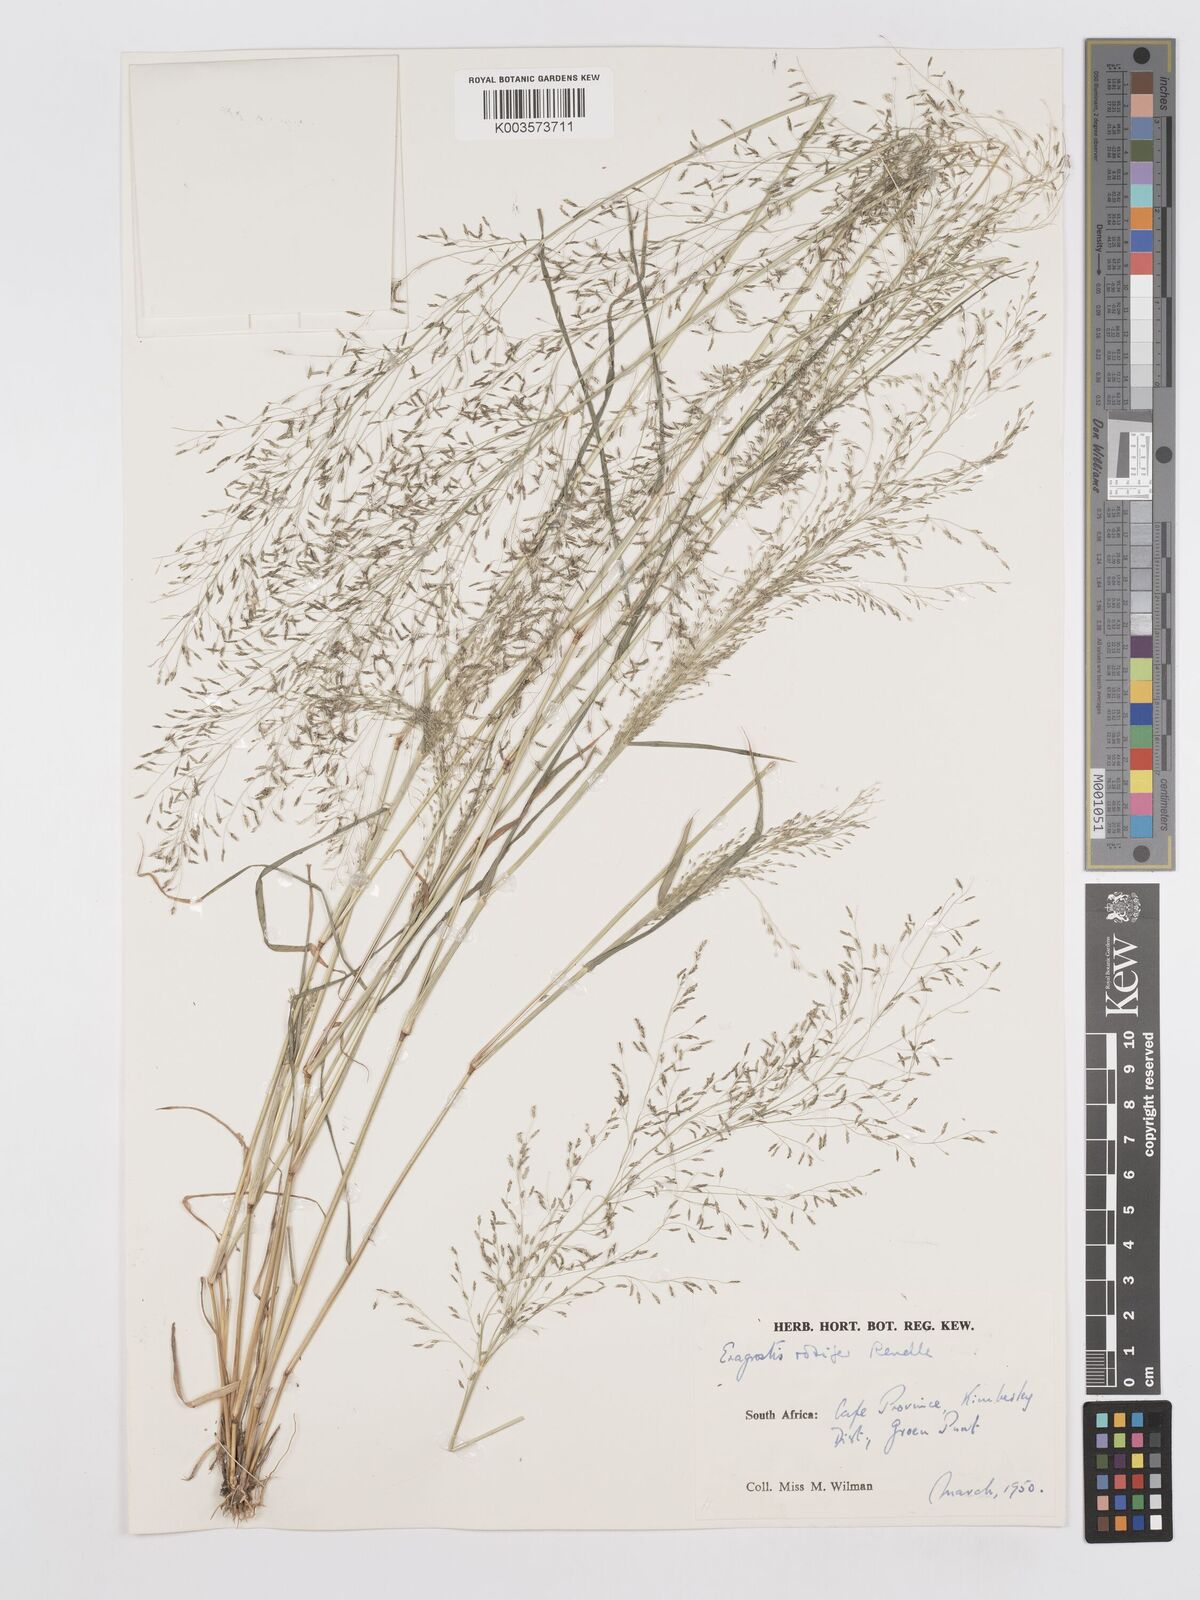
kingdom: Plantae
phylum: Tracheophyta
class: Liliopsida
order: Poales
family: Poaceae
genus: Eragrostis
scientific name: Eragrostis rotifer
